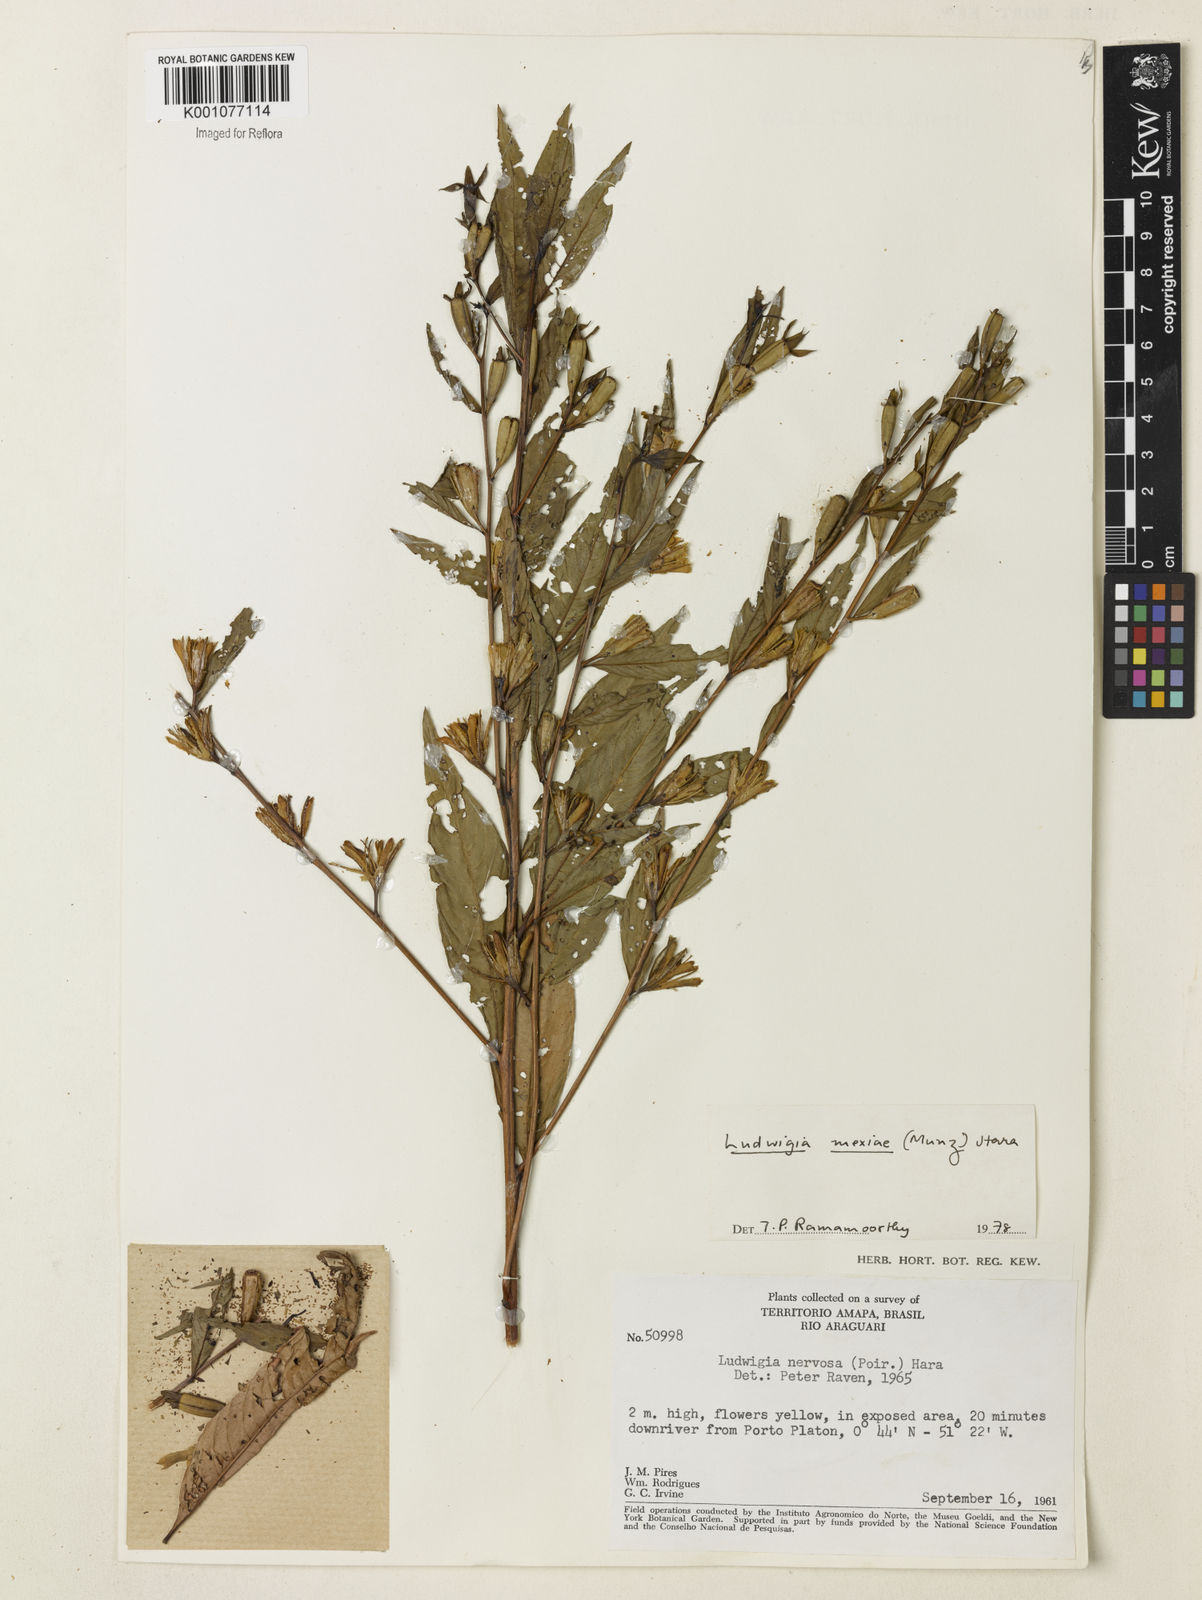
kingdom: Plantae
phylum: Tracheophyta
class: Magnoliopsida
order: Myrtales
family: Onagraceae
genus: Ludwigia
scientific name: Ludwigia mexiae
